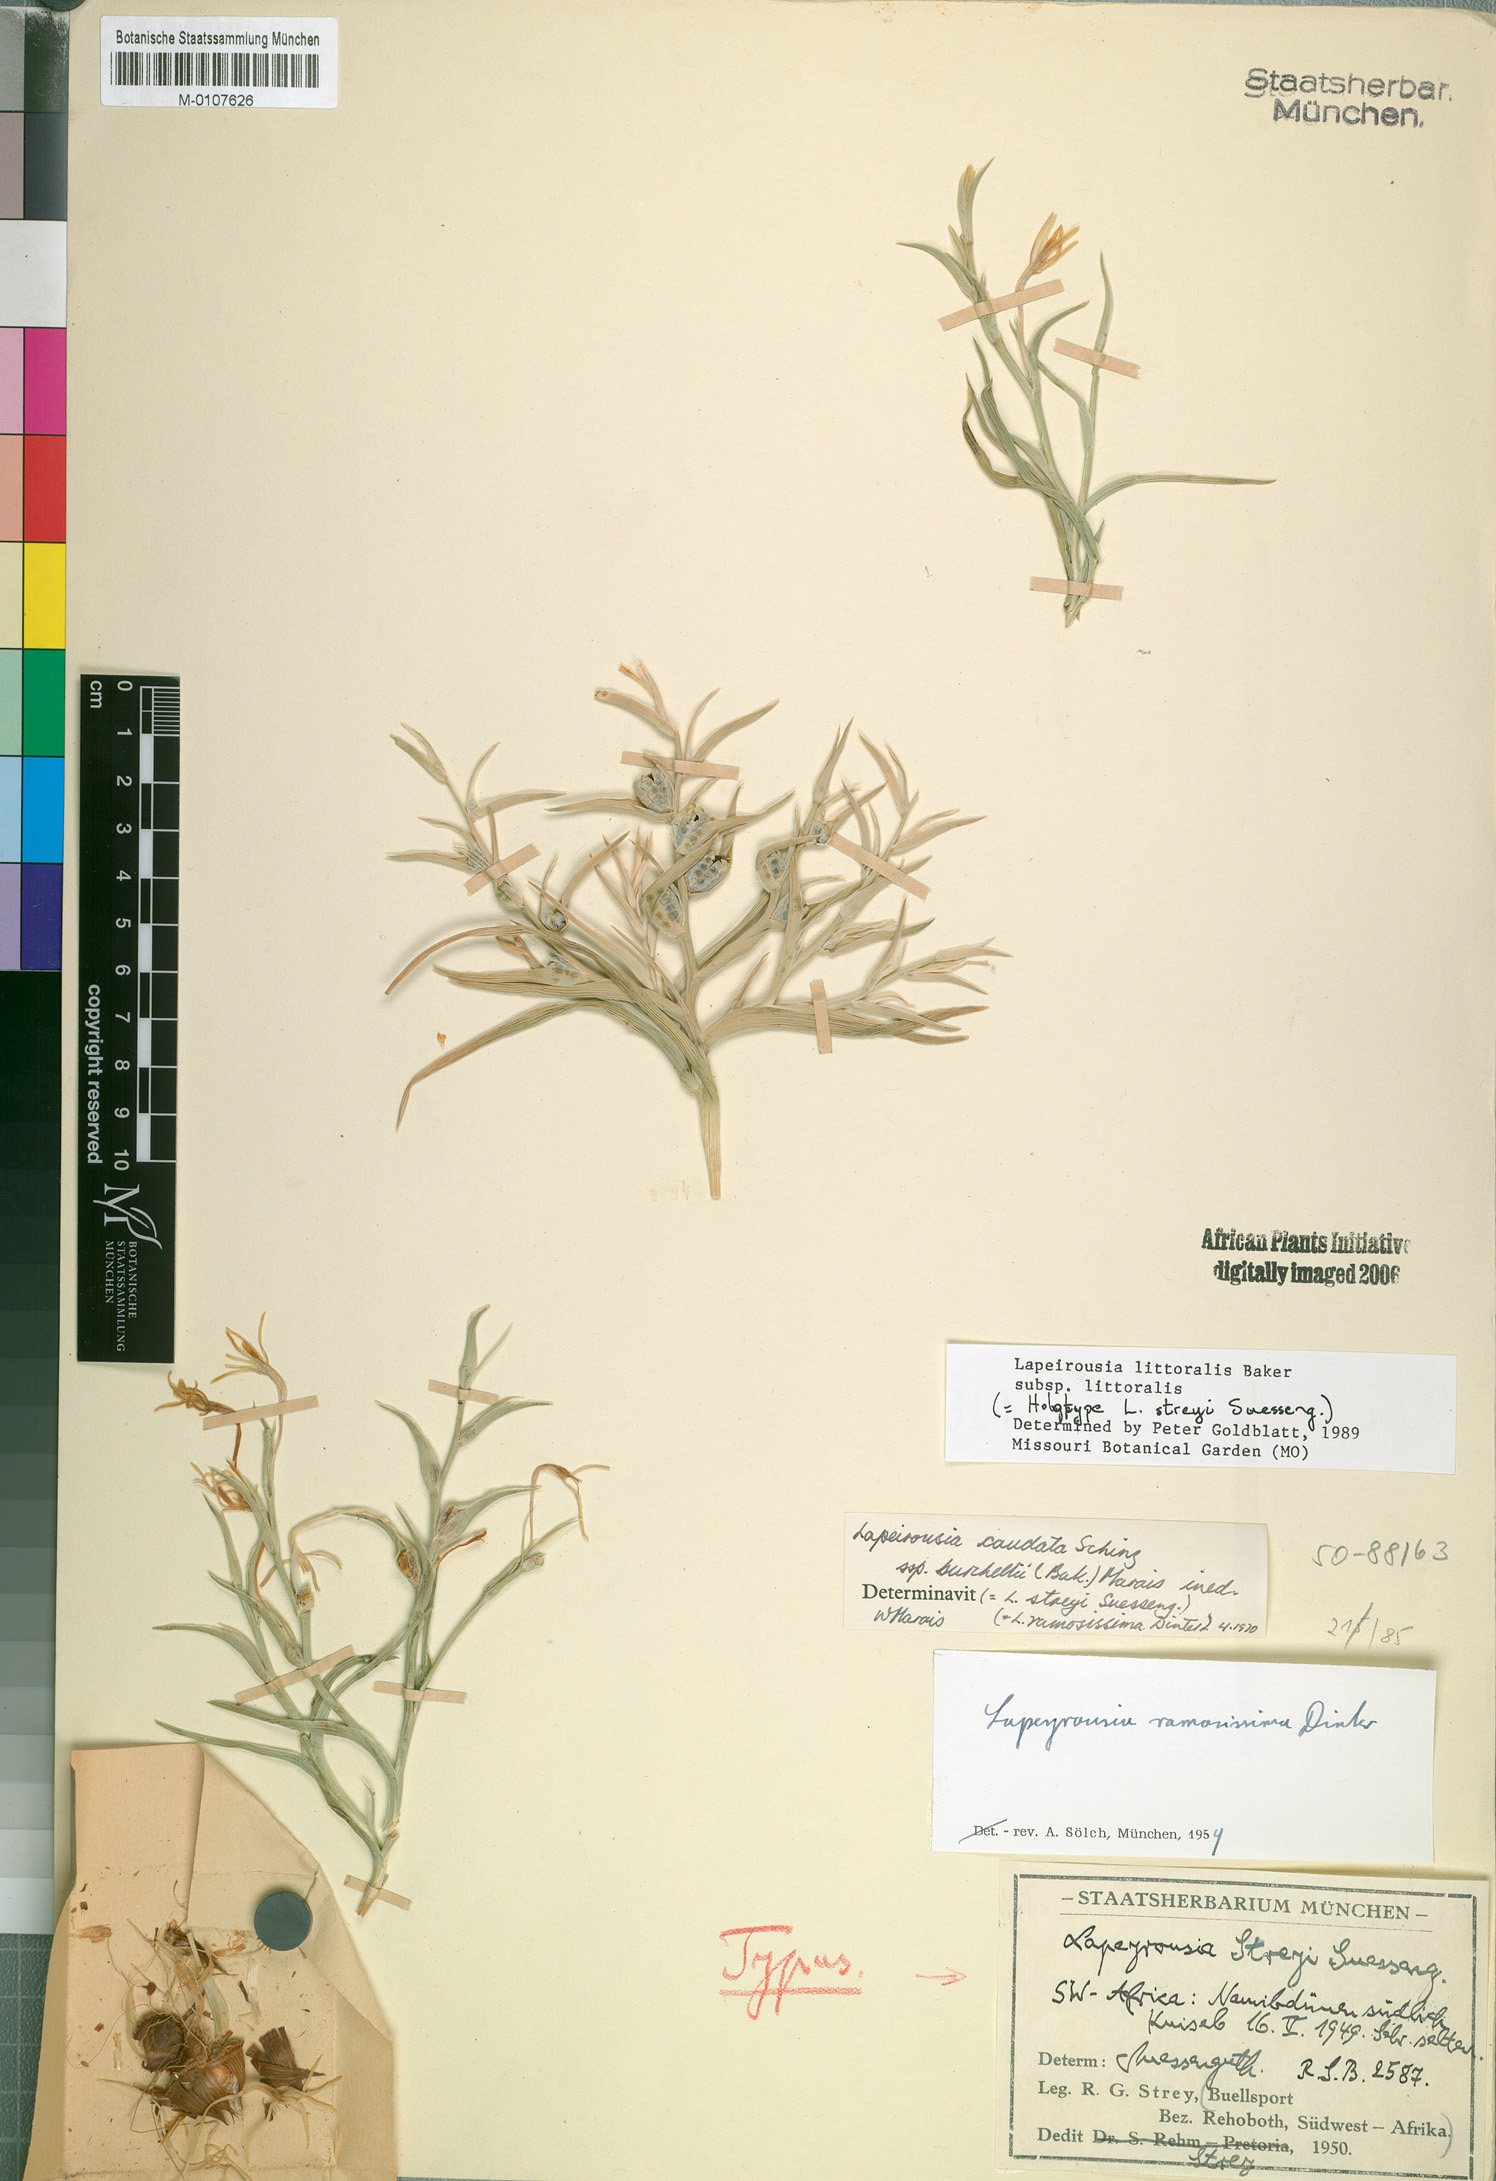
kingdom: Plantae
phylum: Tracheophyta
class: Liliopsida
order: Asparagales
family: Iridaceae
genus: Lapeirousia
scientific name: Lapeirousia littoralis
